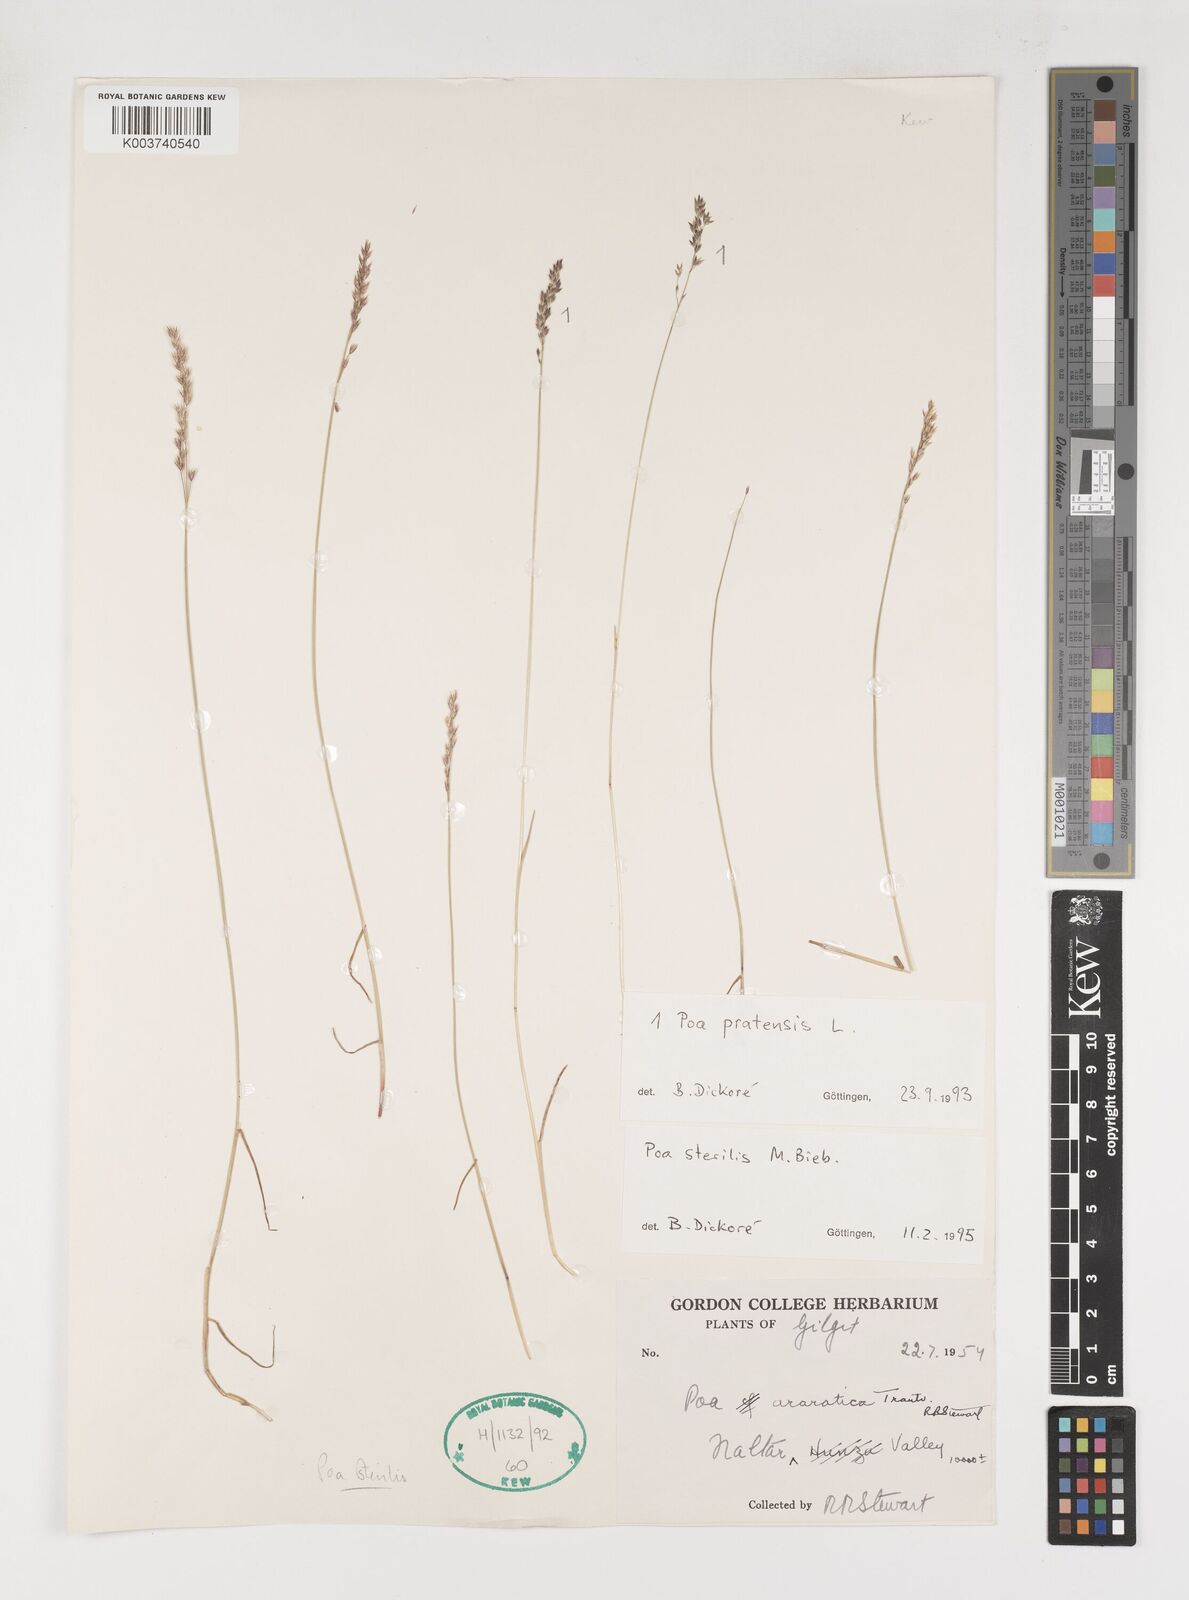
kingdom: Plantae
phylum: Tracheophyta
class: Liliopsida
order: Poales
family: Poaceae
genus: Poa
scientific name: Poa sterilis
